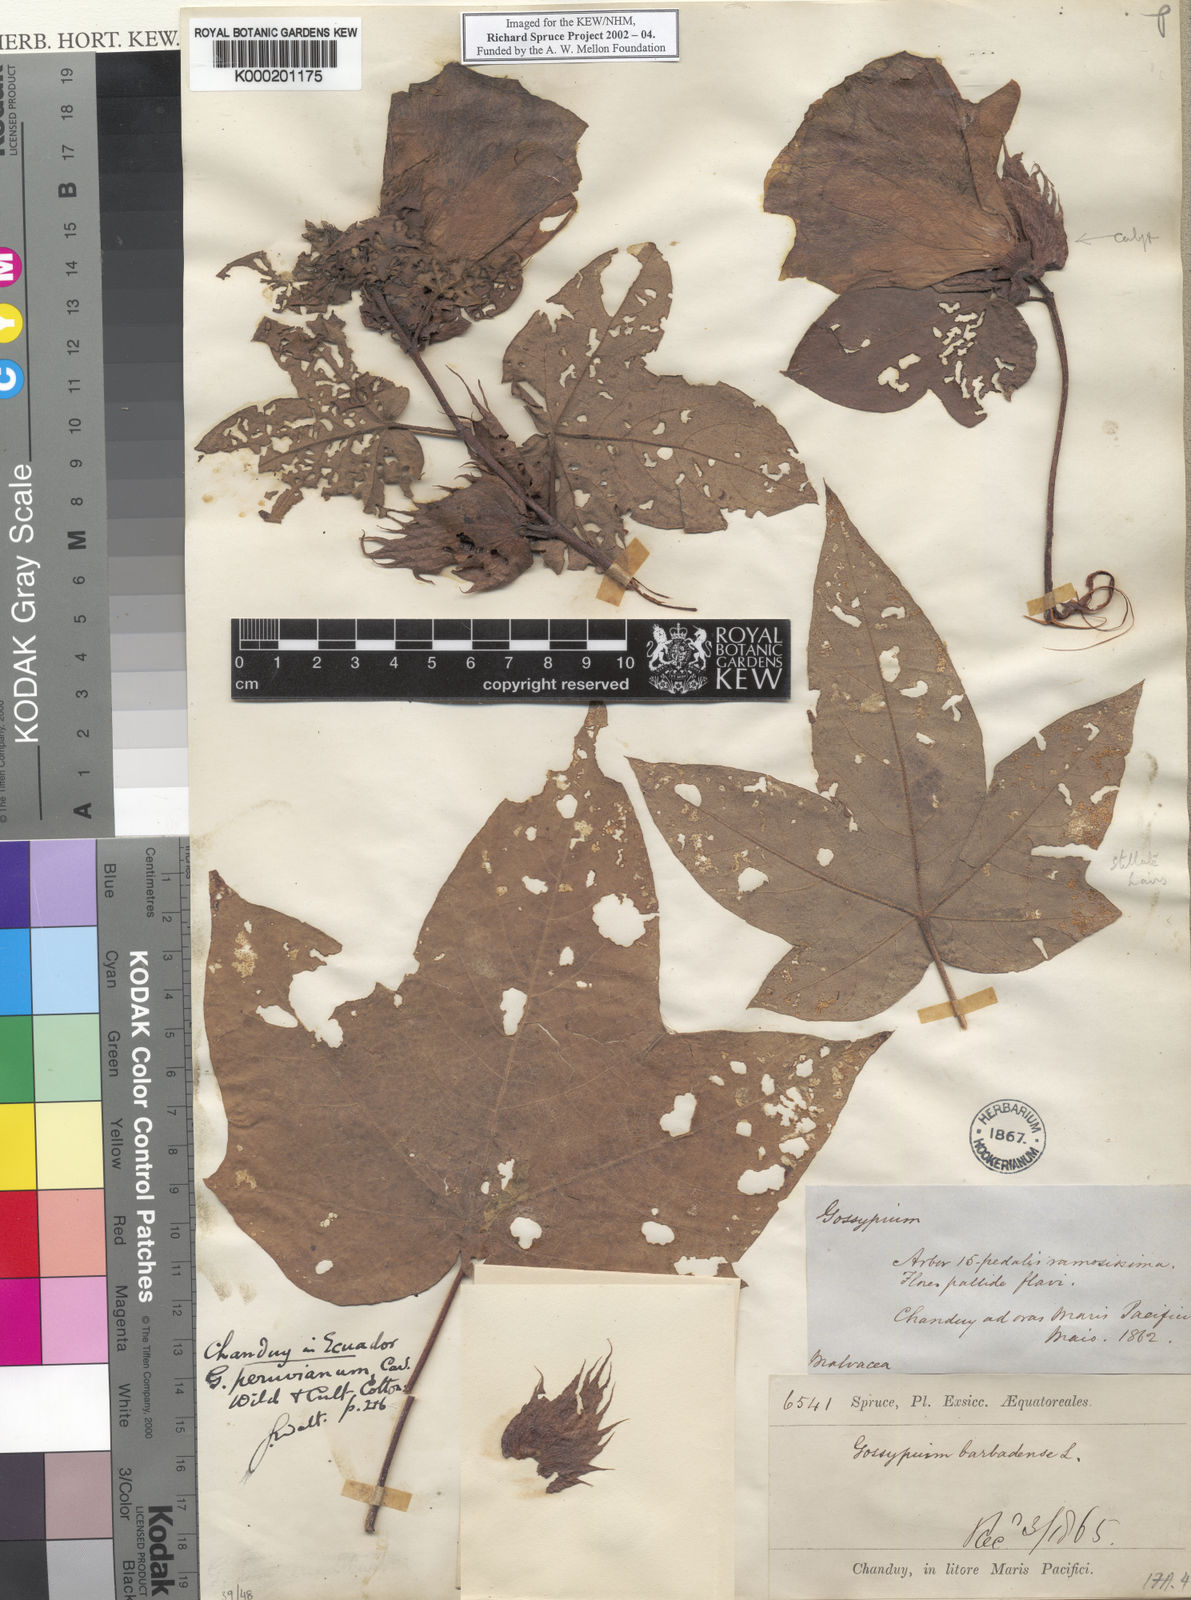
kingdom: Plantae
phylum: Tracheophyta
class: Magnoliopsida
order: Malvales
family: Malvaceae
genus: Gossypium
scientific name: Gossypium barbadense
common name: Creole cotton
